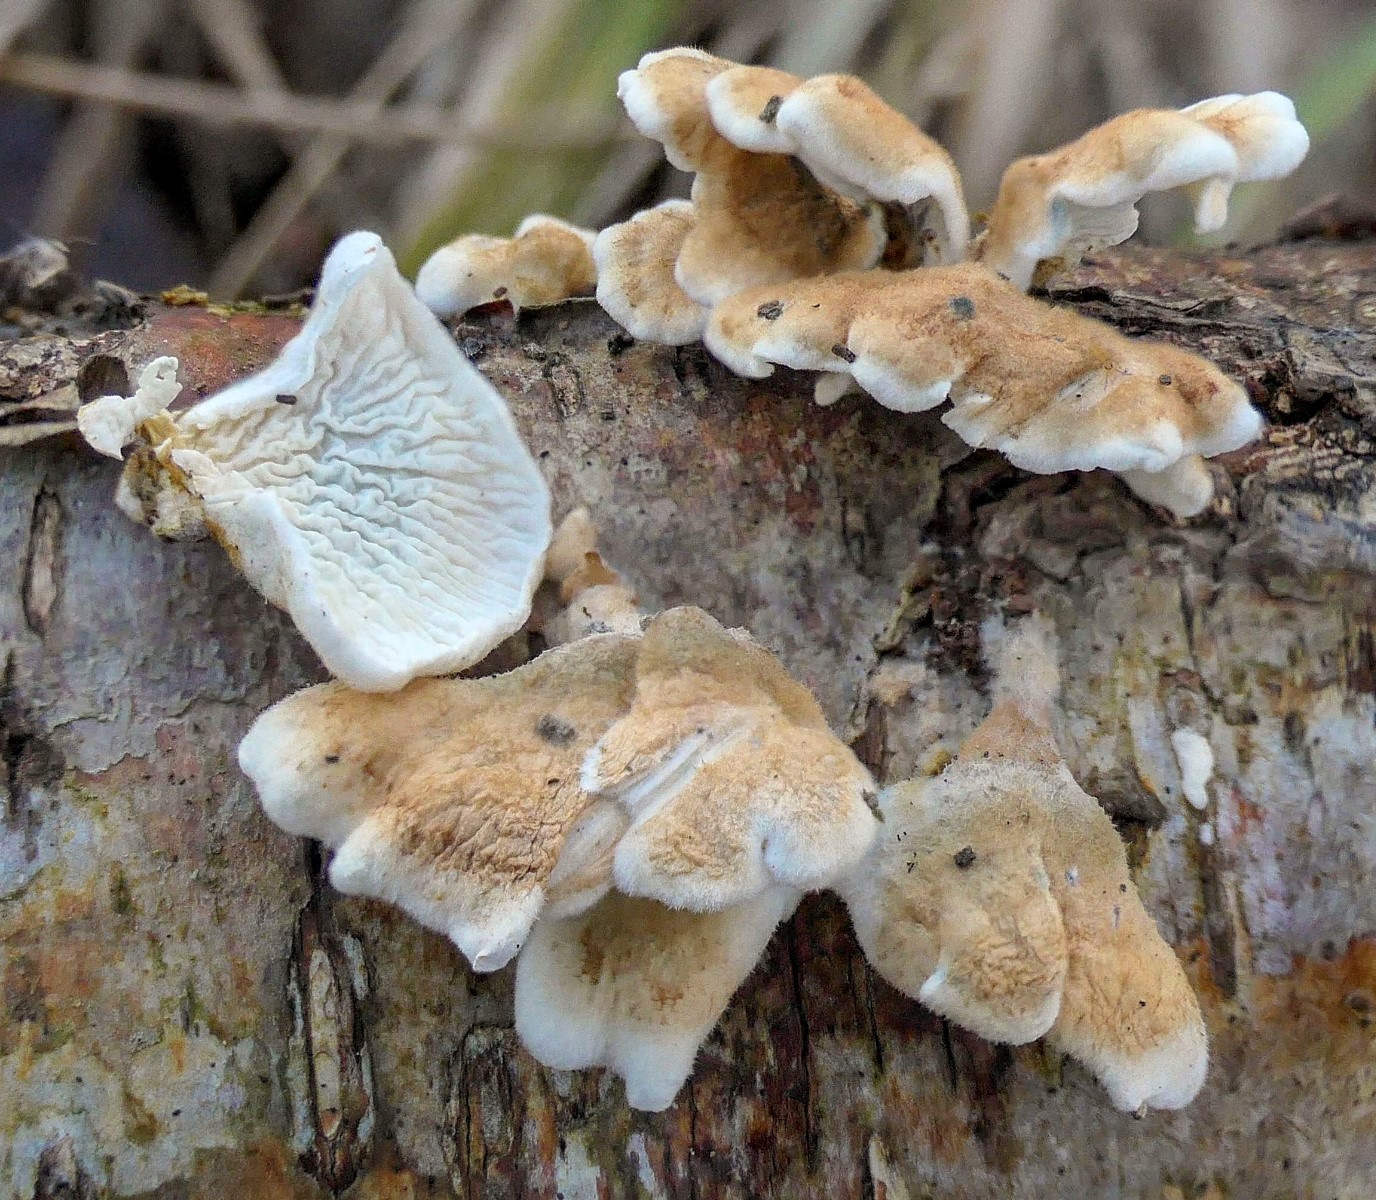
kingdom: Fungi
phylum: Basidiomycota
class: Agaricomycetes
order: Amylocorticiales
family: Amylocorticiaceae
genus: Plicaturopsis
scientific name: Plicaturopsis crispa
